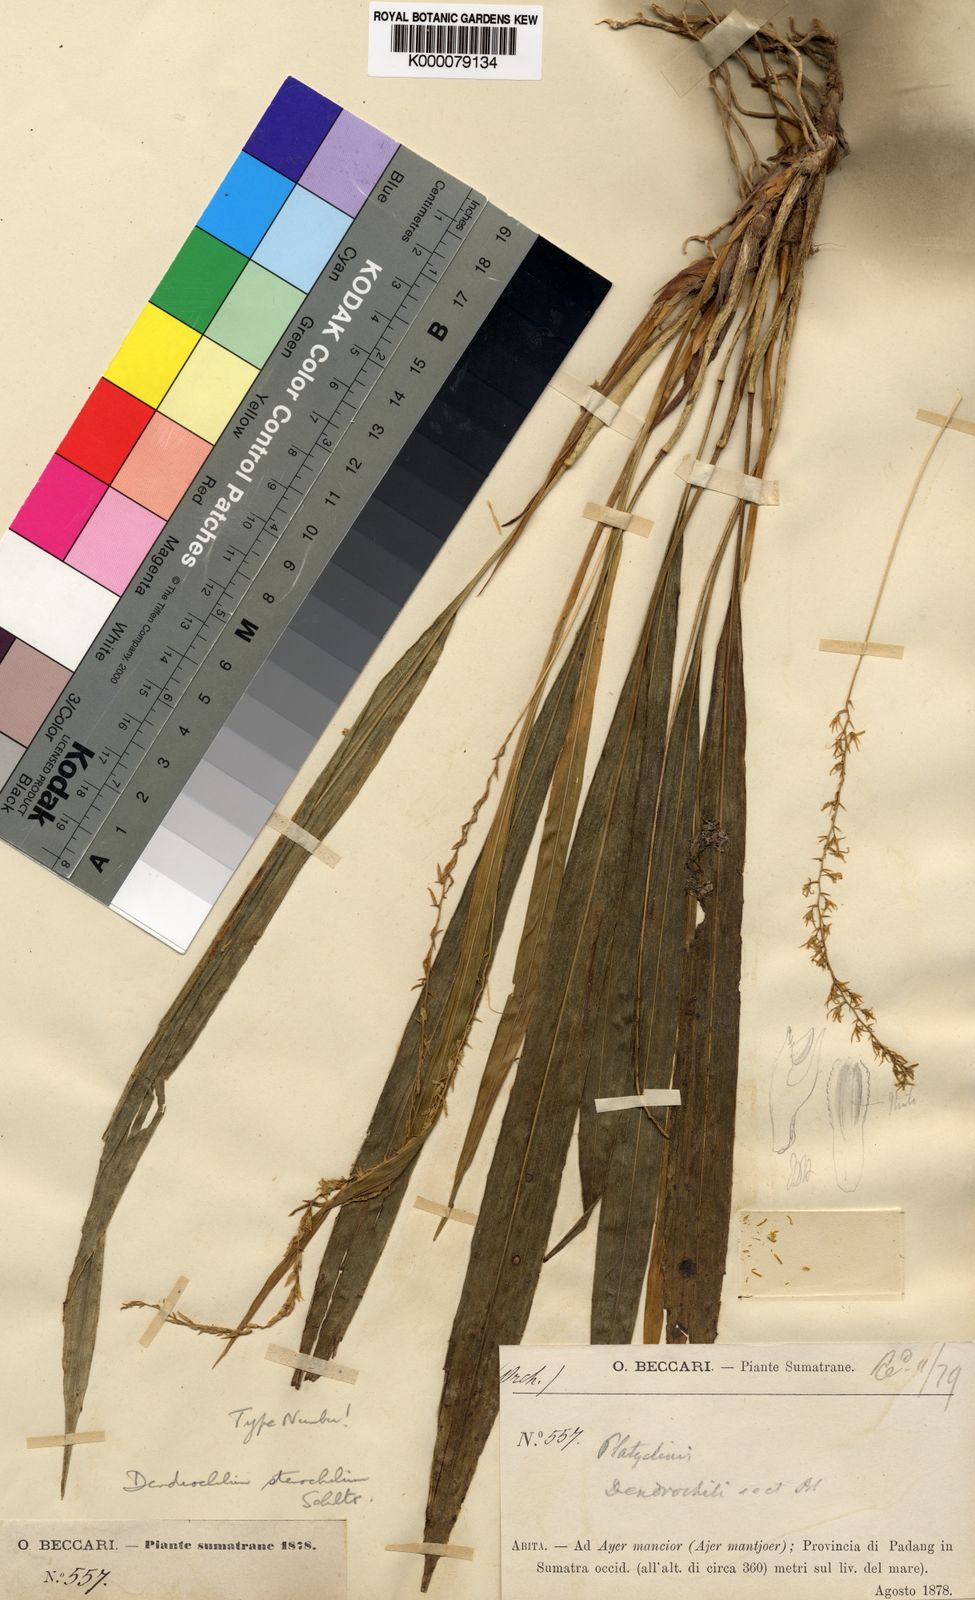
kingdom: Plantae
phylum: Tracheophyta
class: Liliopsida
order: Asparagales
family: Orchidaceae
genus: Coelogyne
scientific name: Coelogyne angustichila
